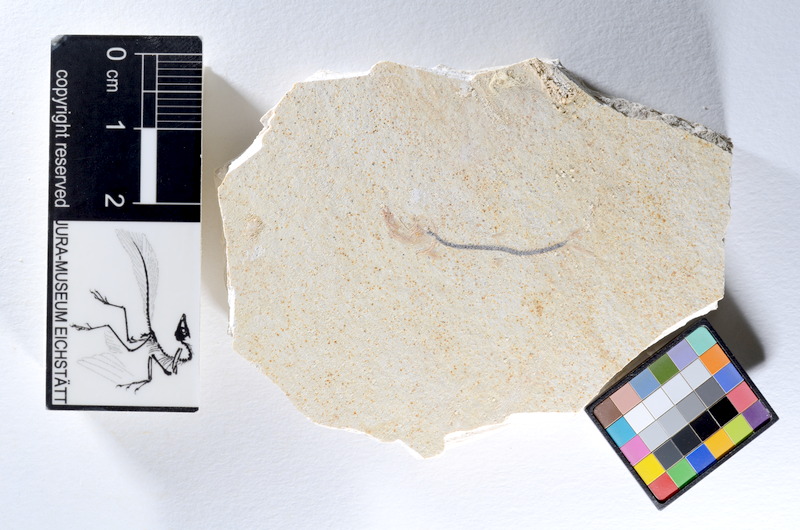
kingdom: Animalia
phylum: Chordata
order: Salmoniformes
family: Orthogonikleithridae
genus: Orthogonikleithrus
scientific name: Orthogonikleithrus hoelli
